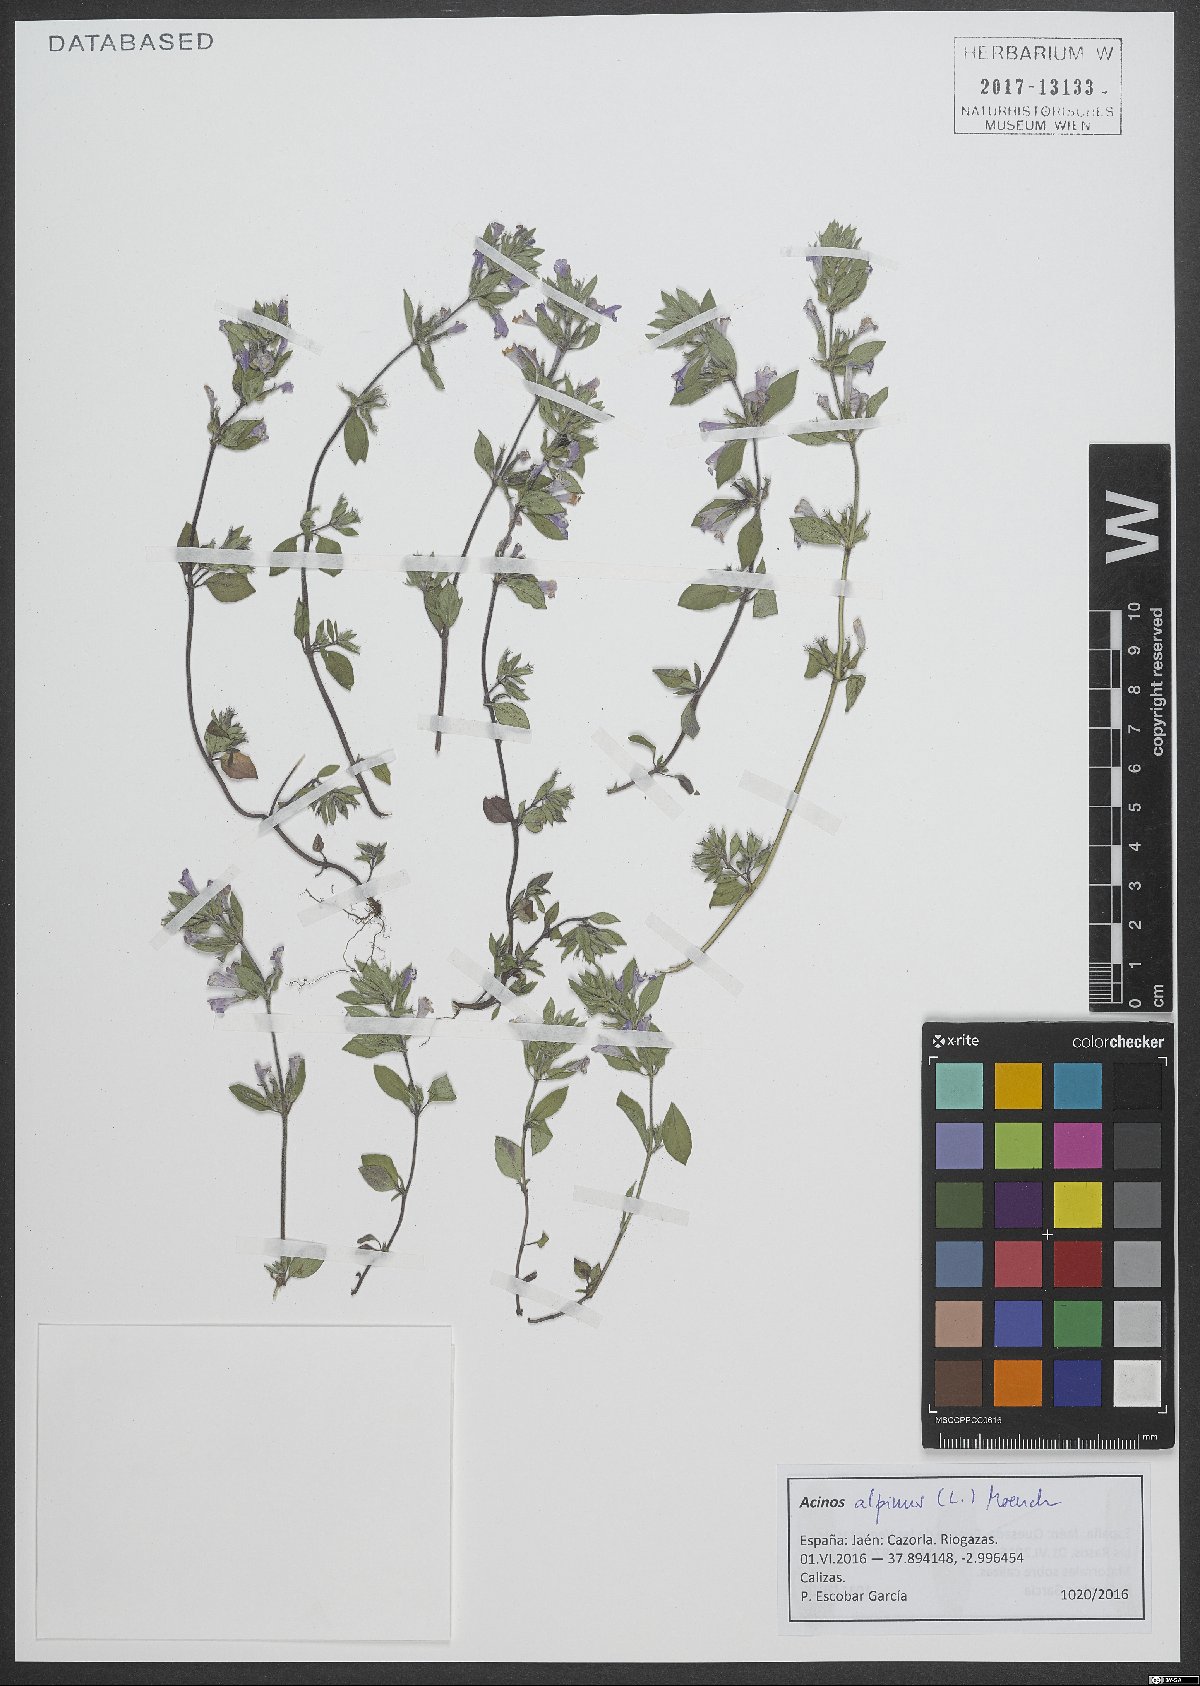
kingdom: Plantae
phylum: Tracheophyta
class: Magnoliopsida
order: Lamiales
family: Lamiaceae
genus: Clinopodium
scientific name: Clinopodium alpinum
